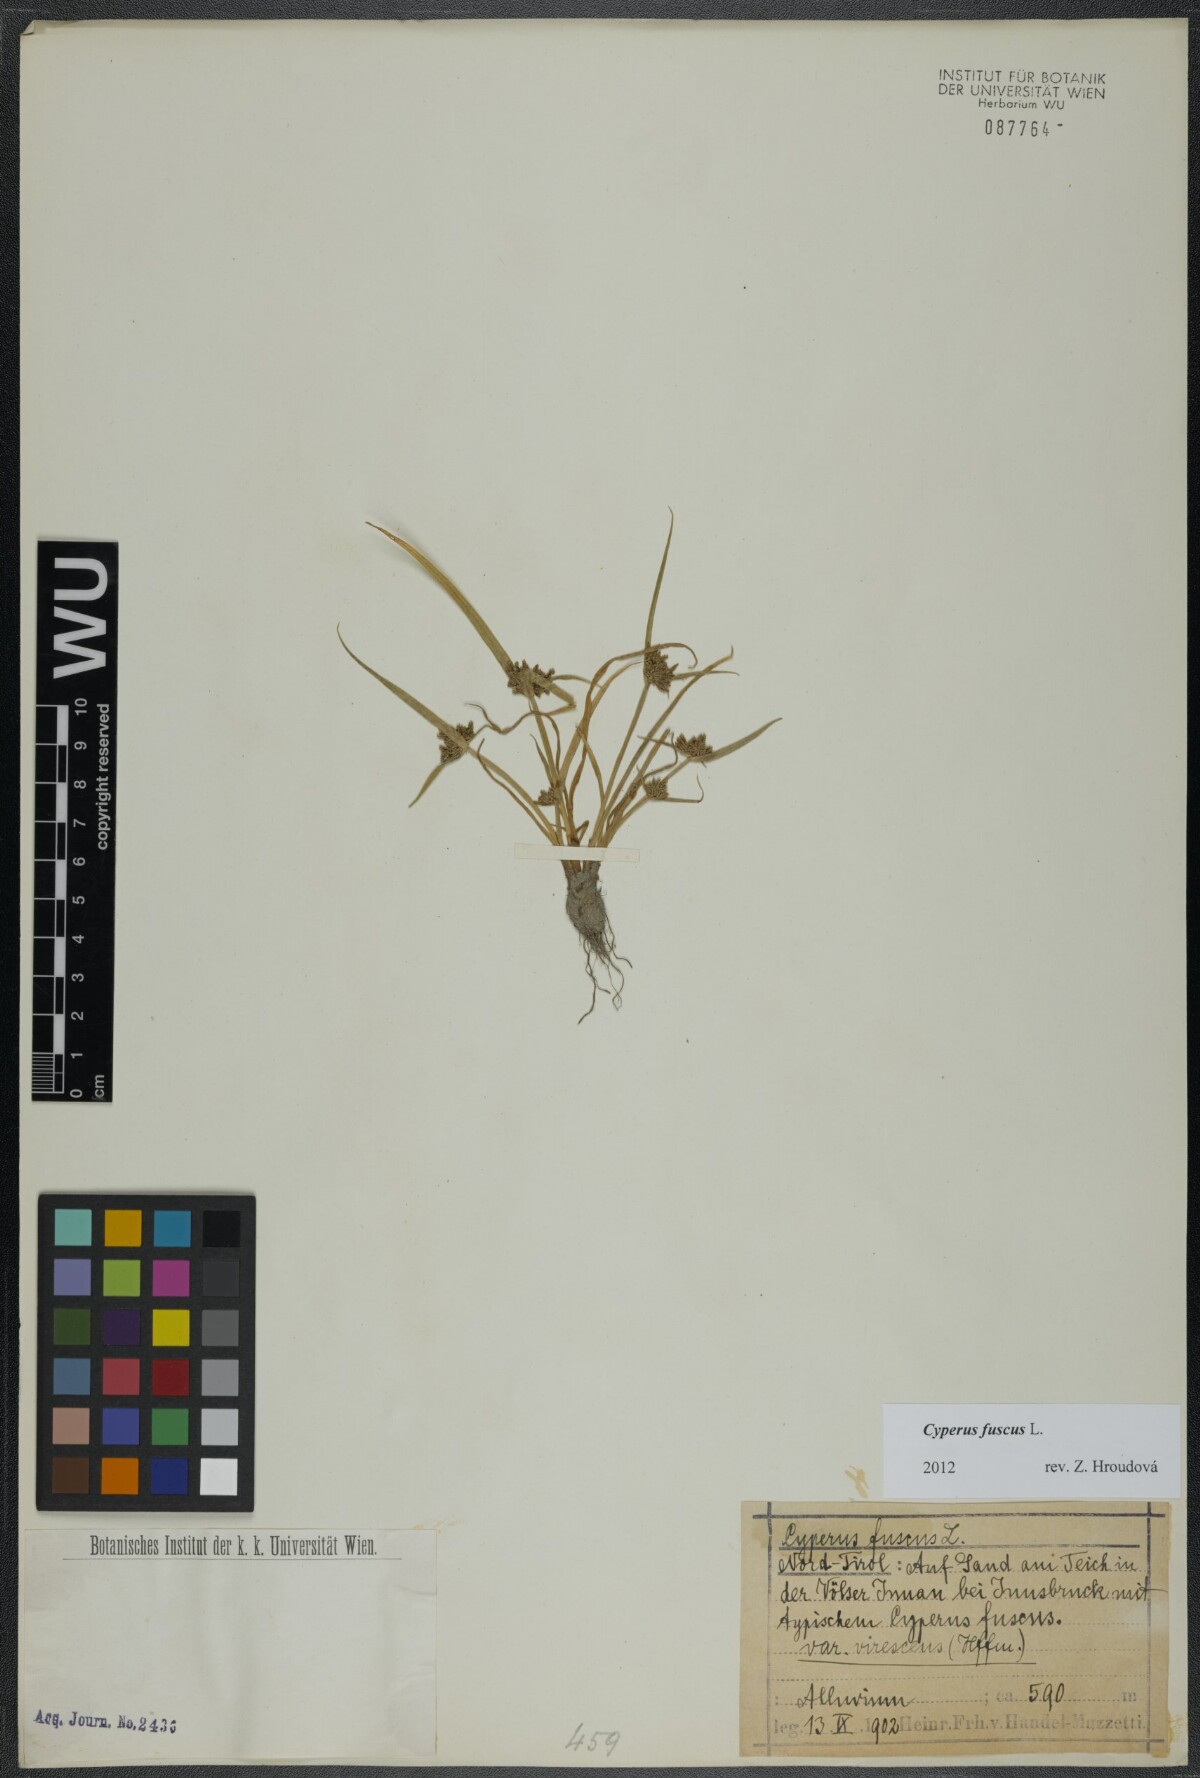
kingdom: Plantae
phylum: Tracheophyta
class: Liliopsida
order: Poales
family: Cyperaceae
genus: Cyperus
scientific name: Cyperus fuscus
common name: Brown galingale
